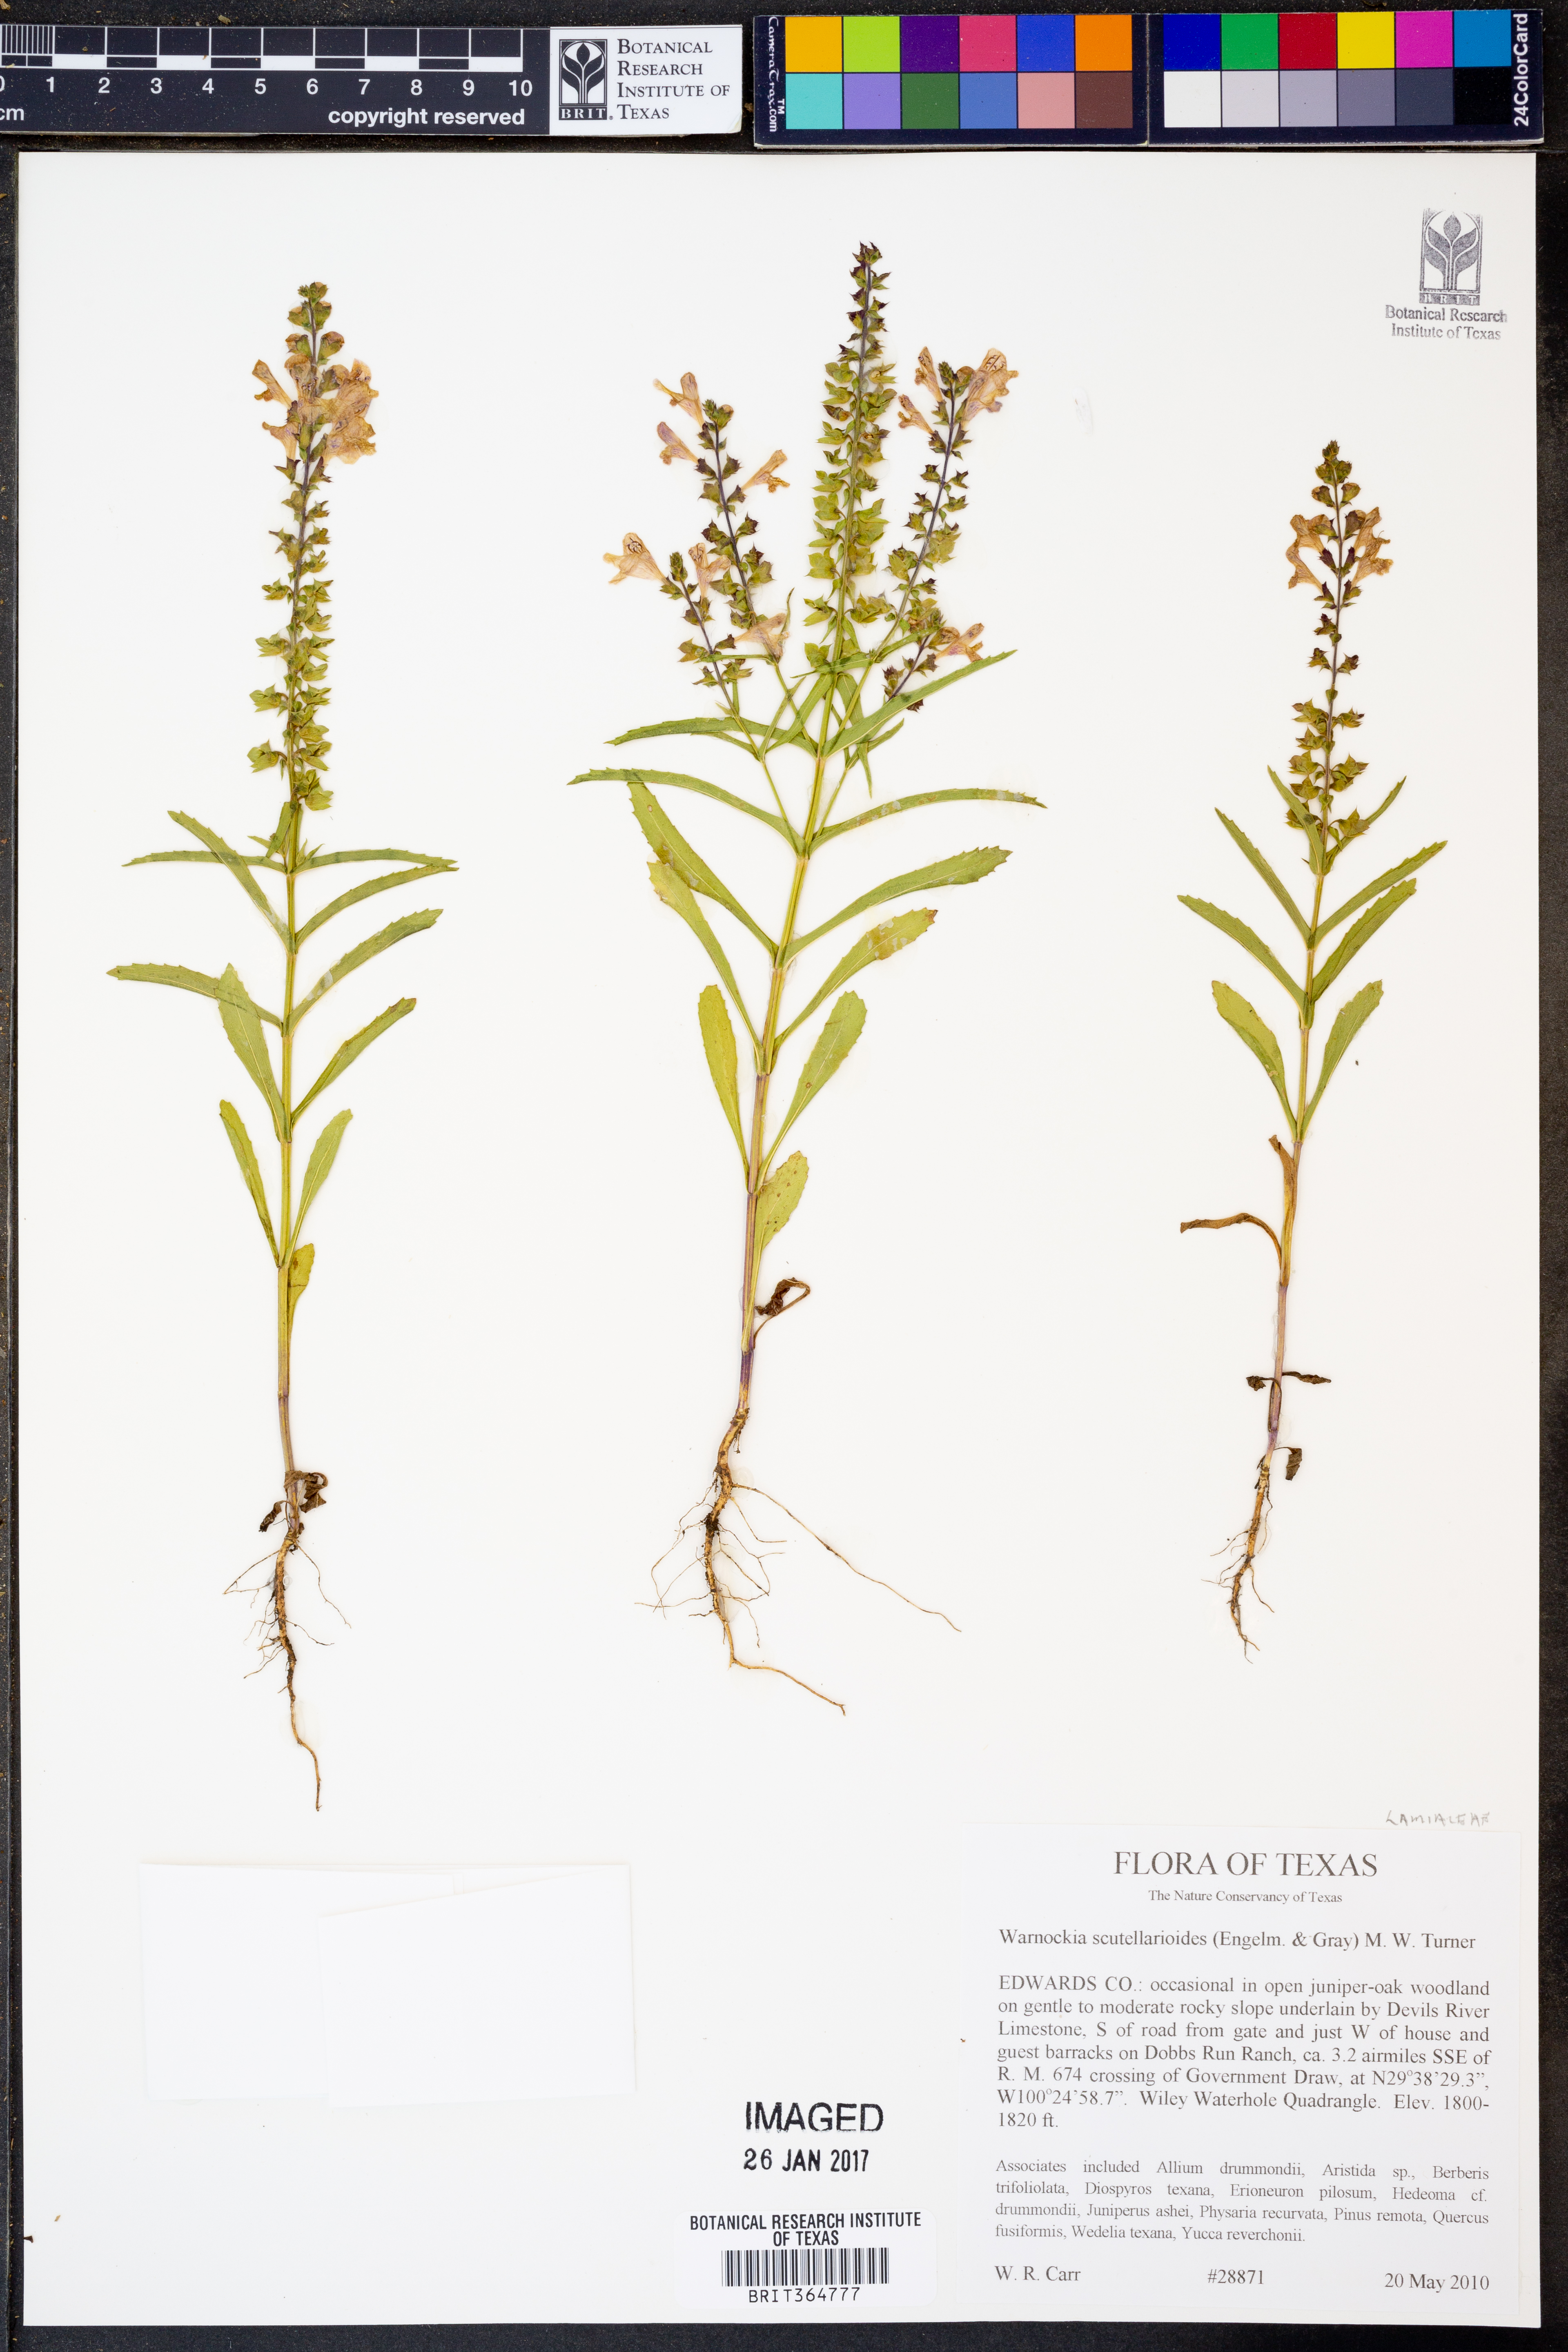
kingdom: Plantae
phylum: Tracheophyta
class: Magnoliopsida
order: Lamiales
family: Lamiaceae
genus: Warnockia
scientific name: Warnockia scutellarioides
